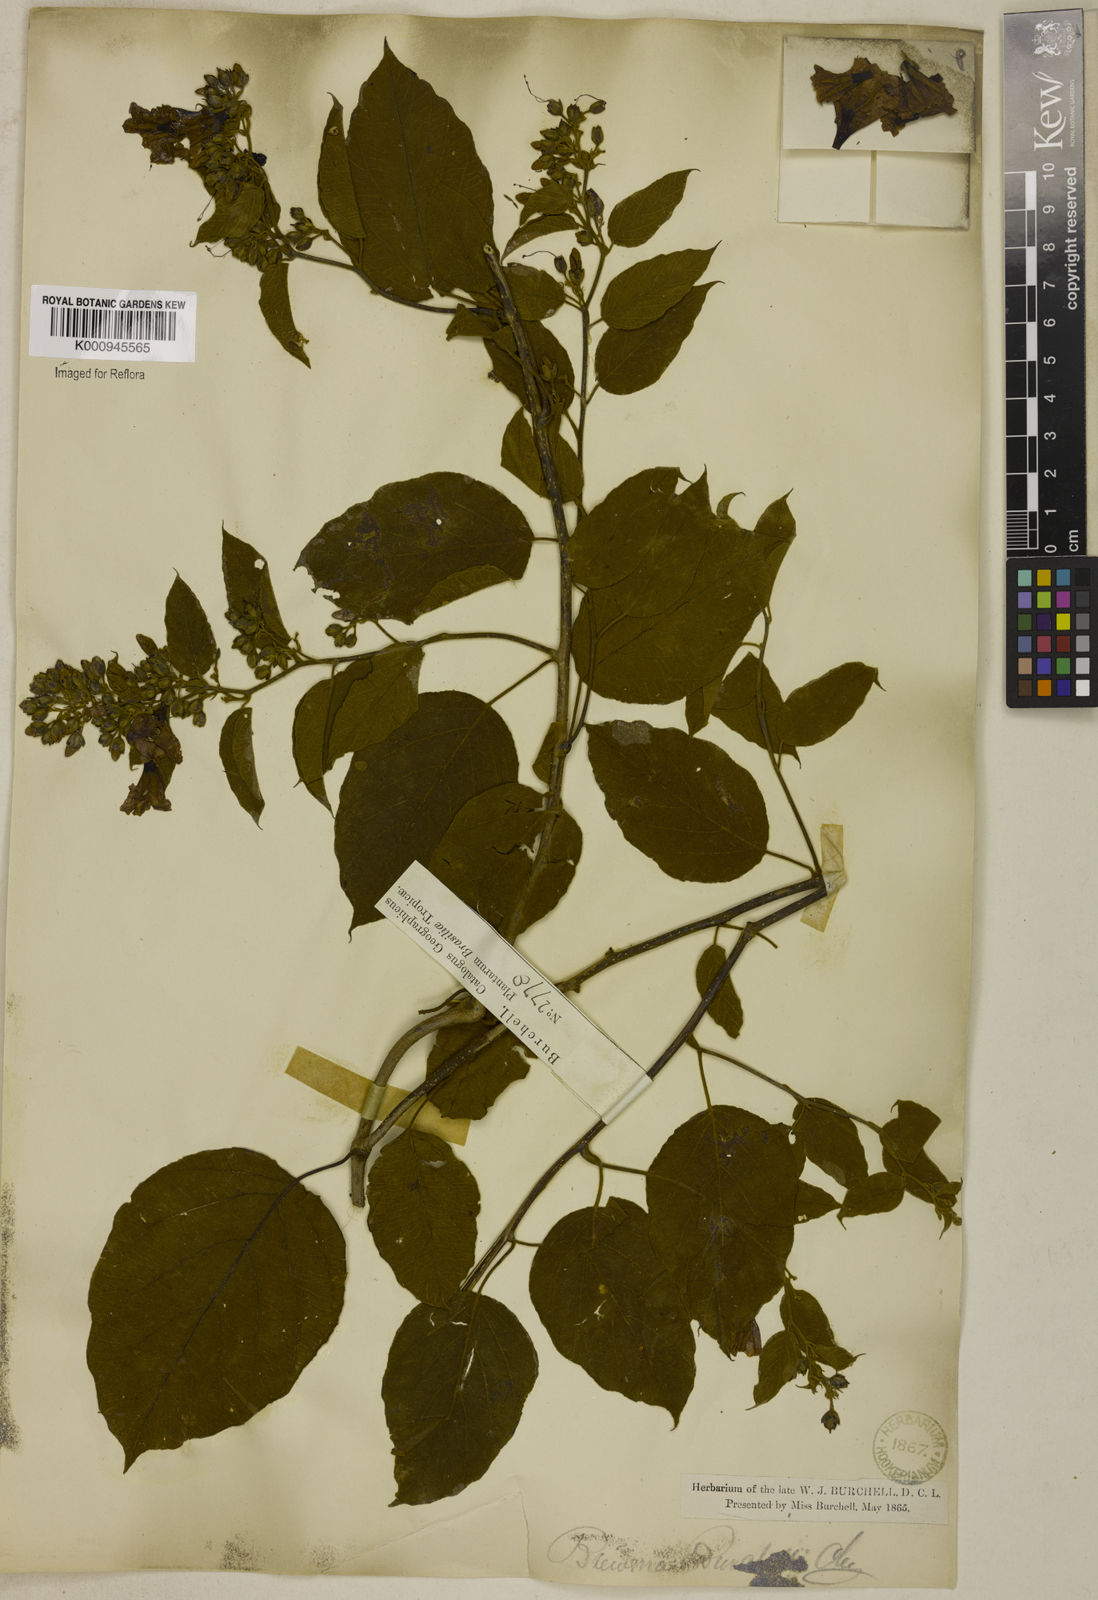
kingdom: Plantae
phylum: Tracheophyta
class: Magnoliopsida
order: Solanales
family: Convolvulaceae
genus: Bonamia
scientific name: Bonamia agrostopolis
